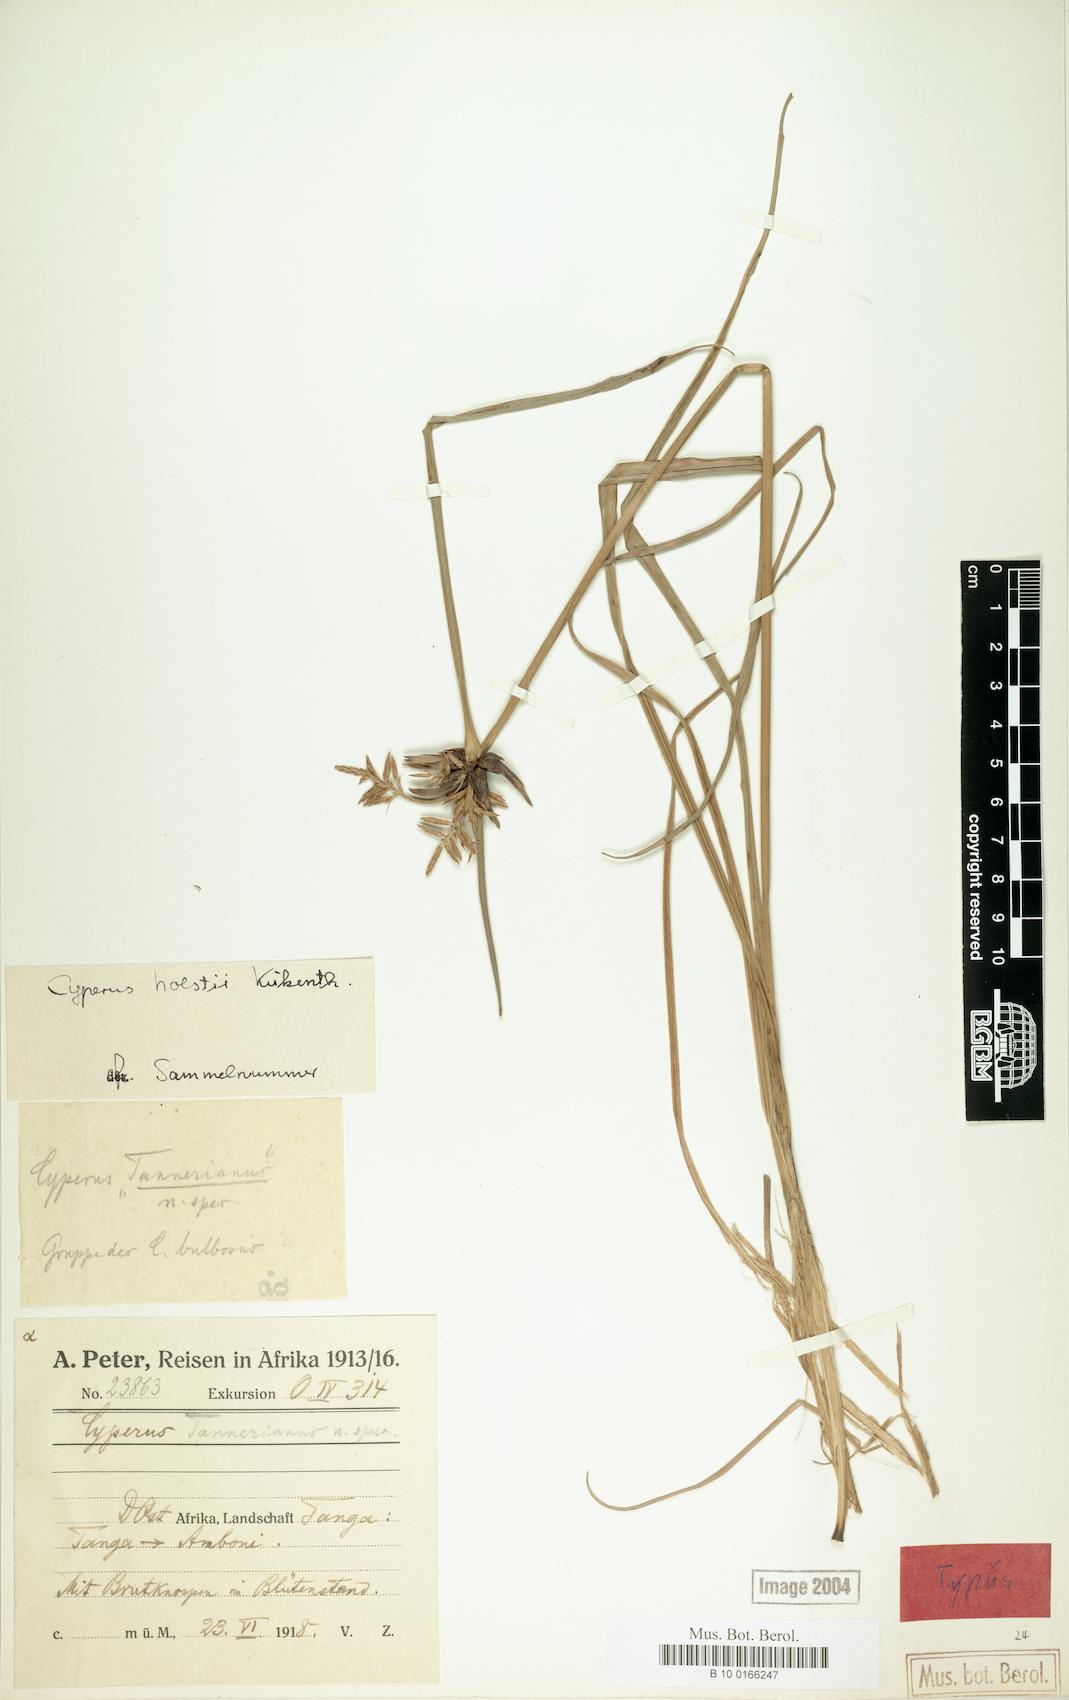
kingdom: Plantae
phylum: Tracheophyta
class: Liliopsida
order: Poales
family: Cyperaceae
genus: Cyperus
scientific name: Cyperus holstii
